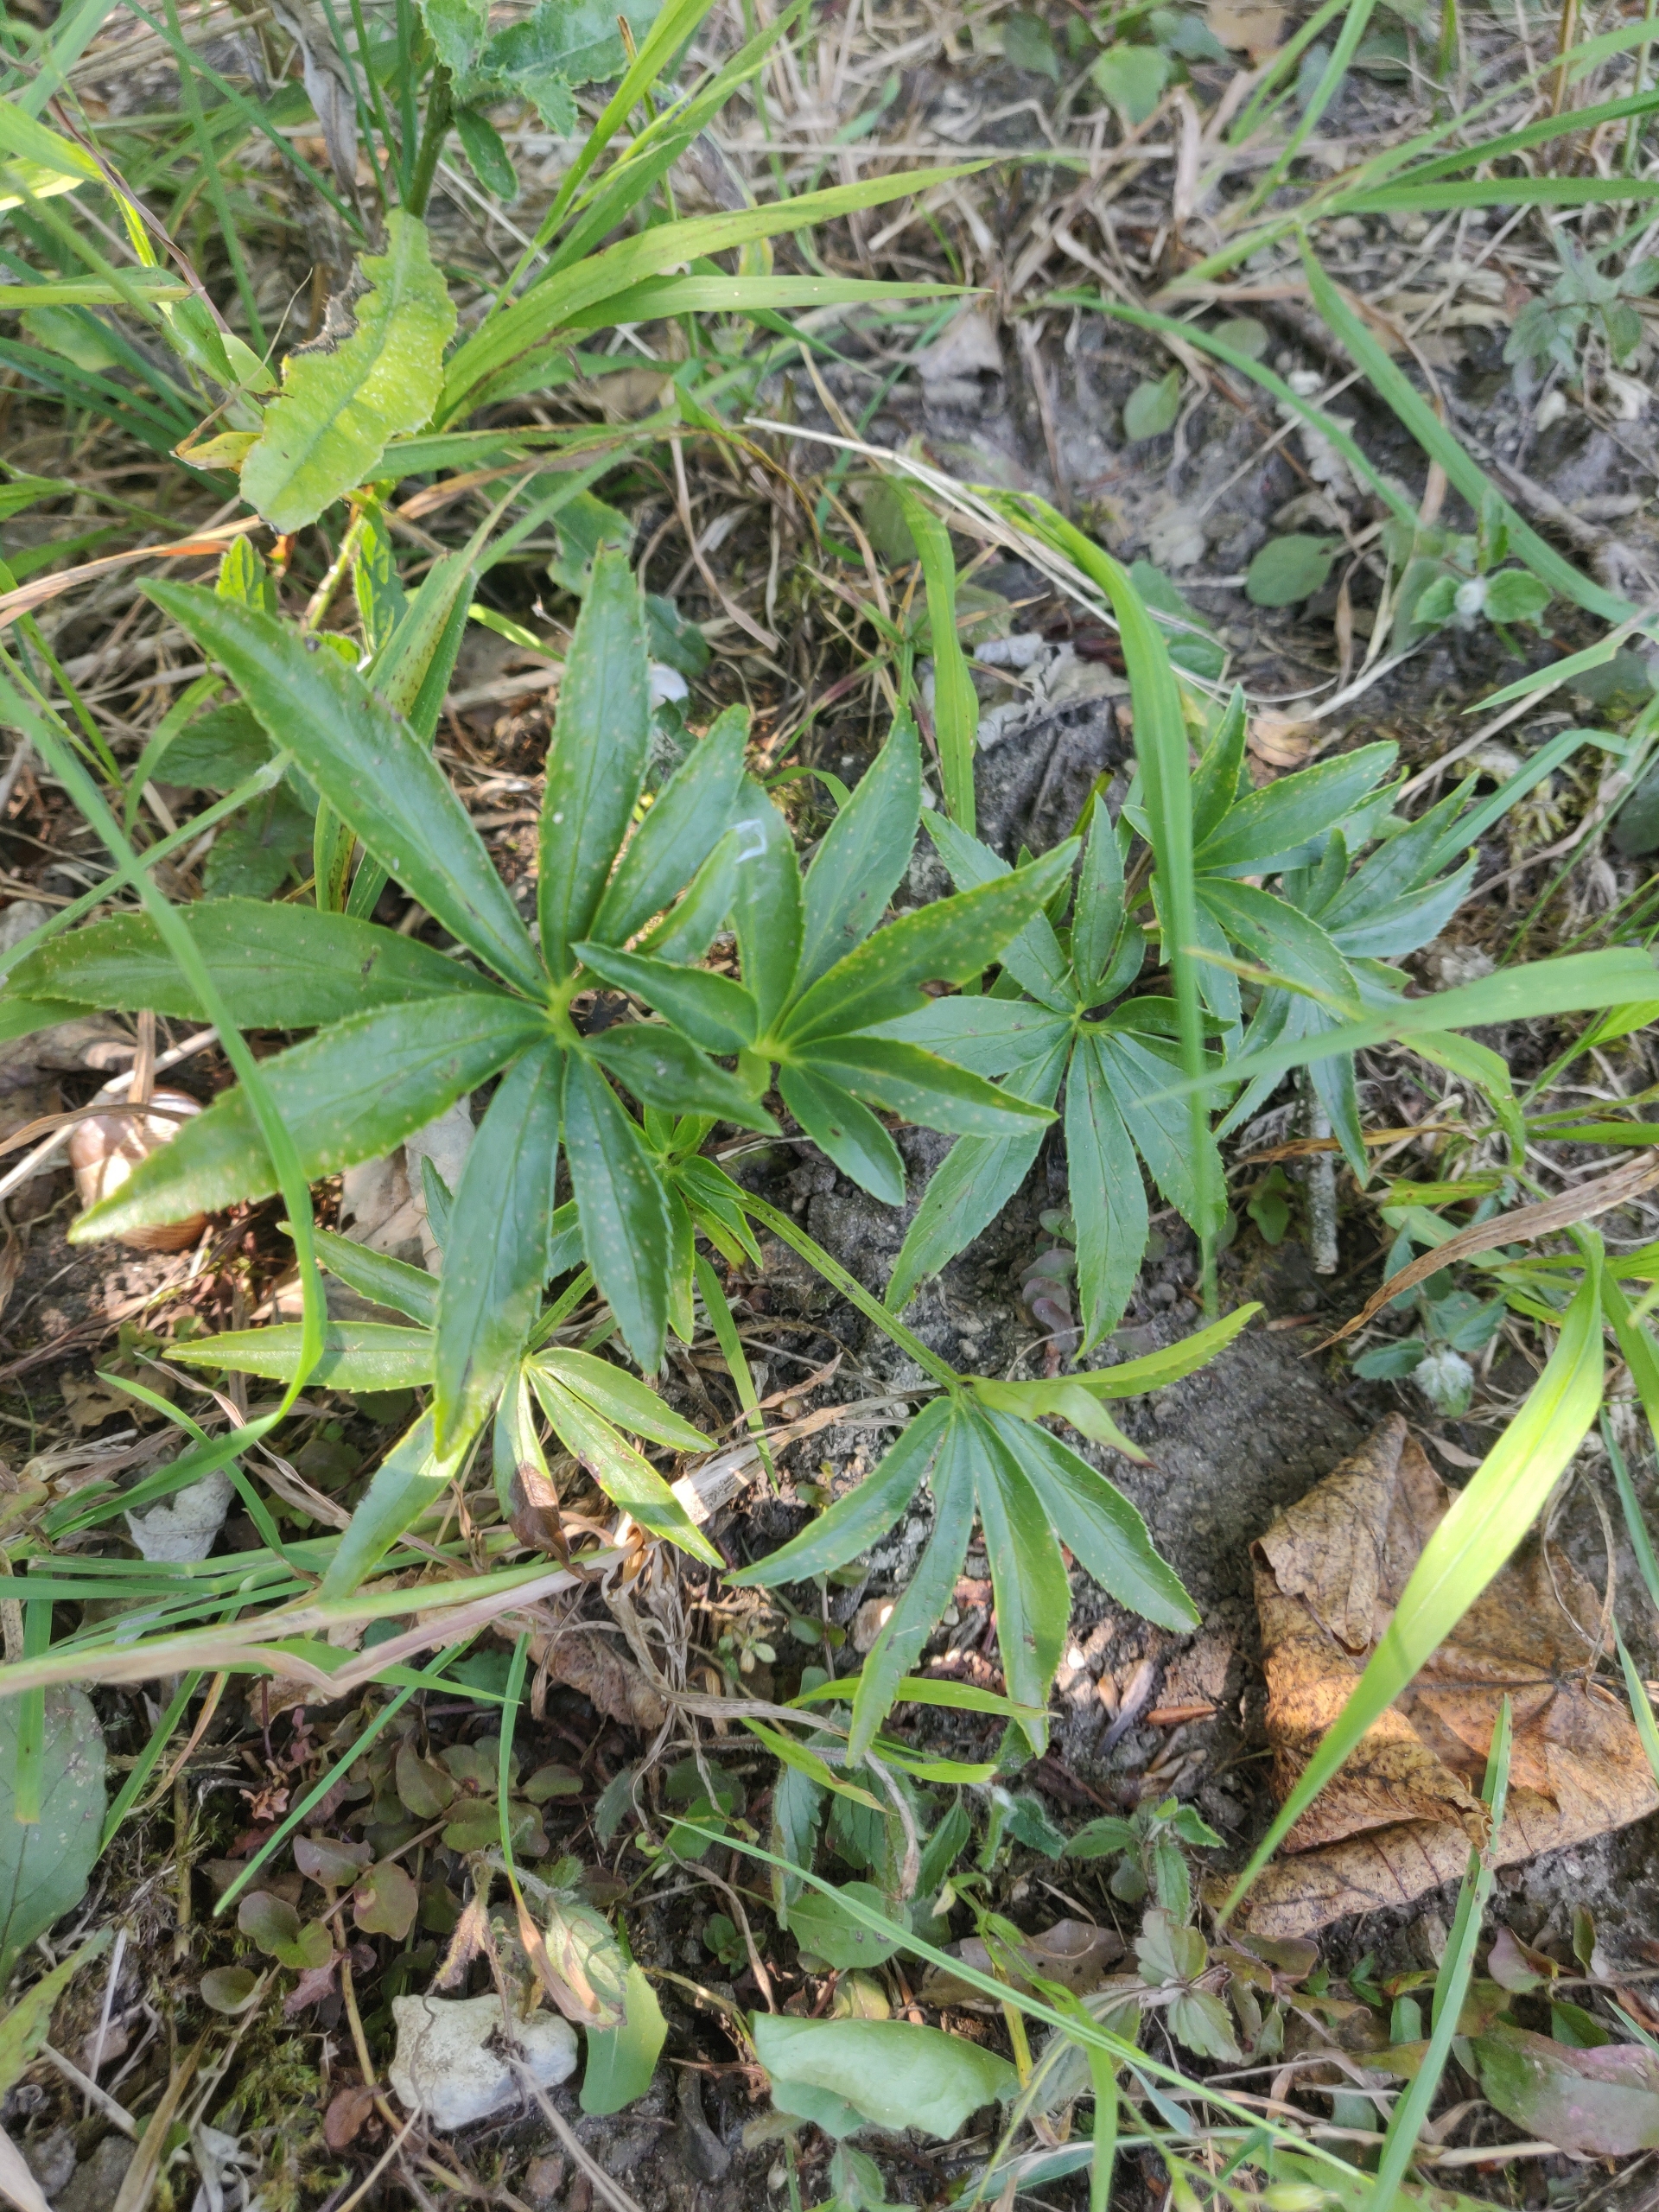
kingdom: Plantae
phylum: Tracheophyta
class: Magnoliopsida
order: Ranunculales
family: Ranunculaceae
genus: Helleborus
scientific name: Helleborus foetidus
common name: Stinkende julerose
